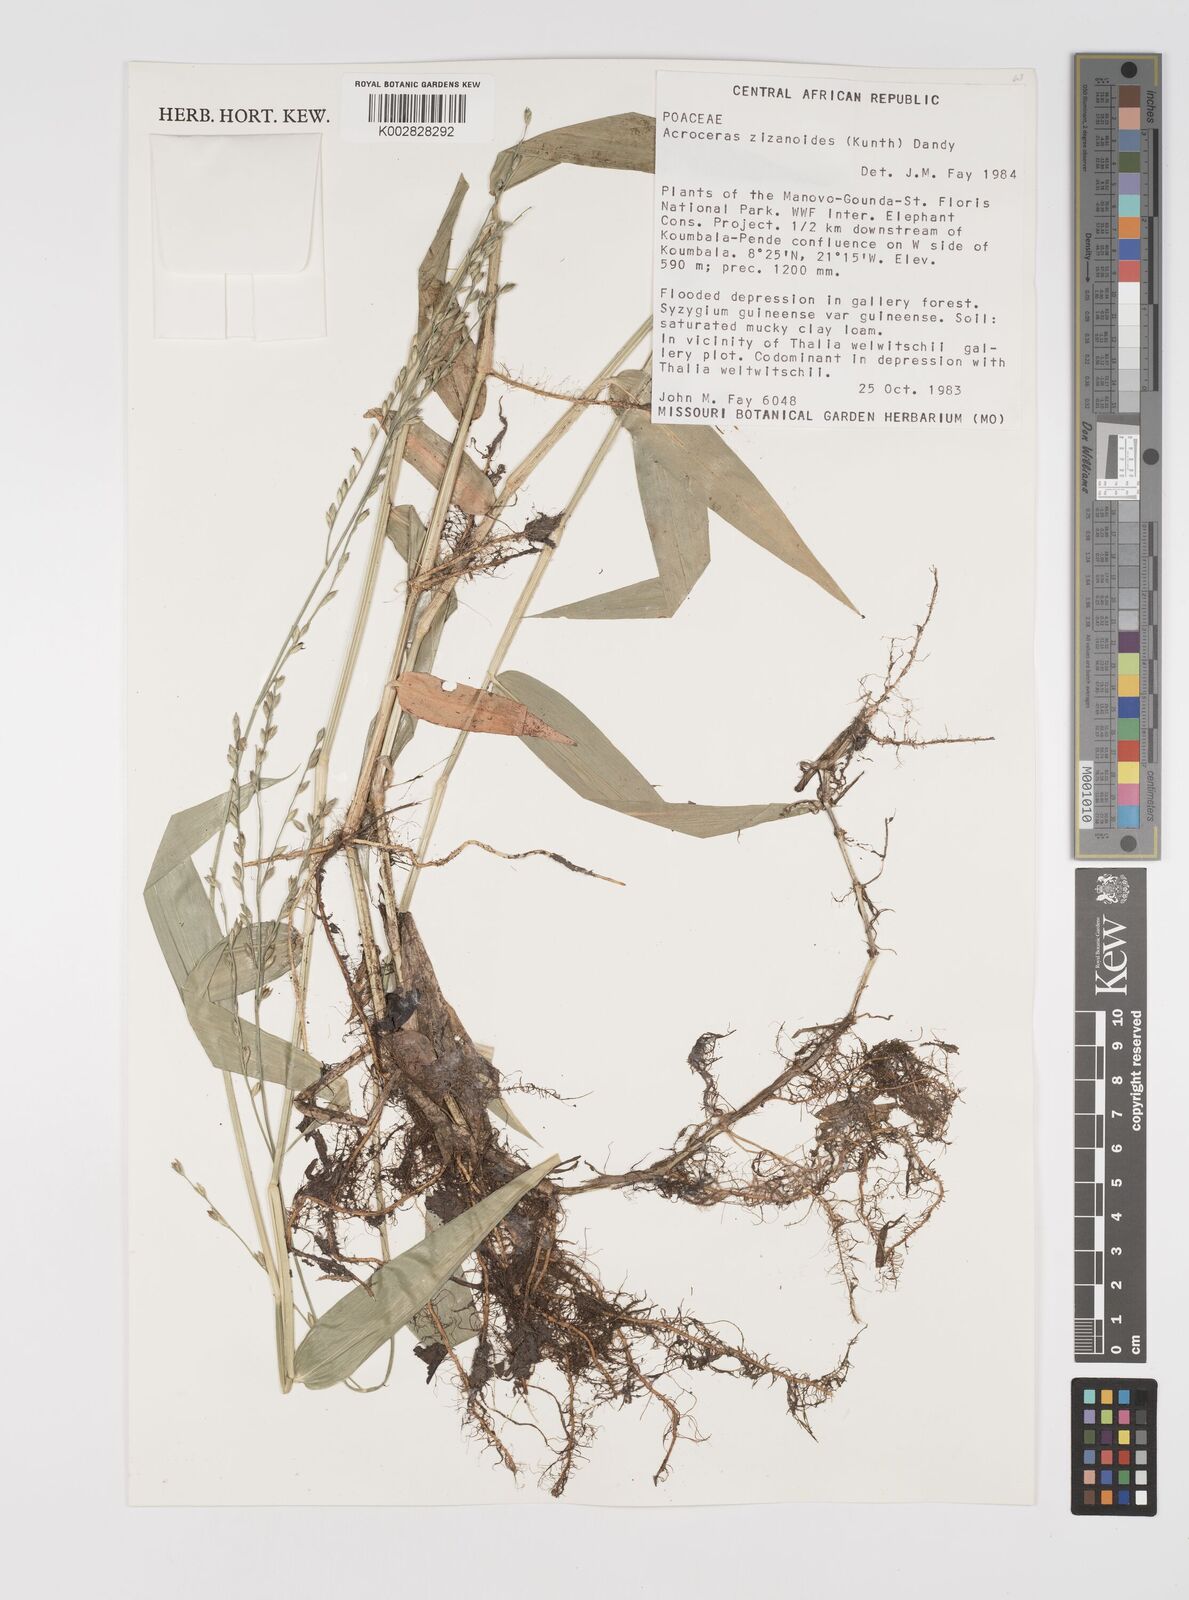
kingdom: Plantae
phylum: Tracheophyta
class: Liliopsida
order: Poales
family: Poaceae
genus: Acroceras
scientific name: Acroceras zizanioides
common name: Oat grass
